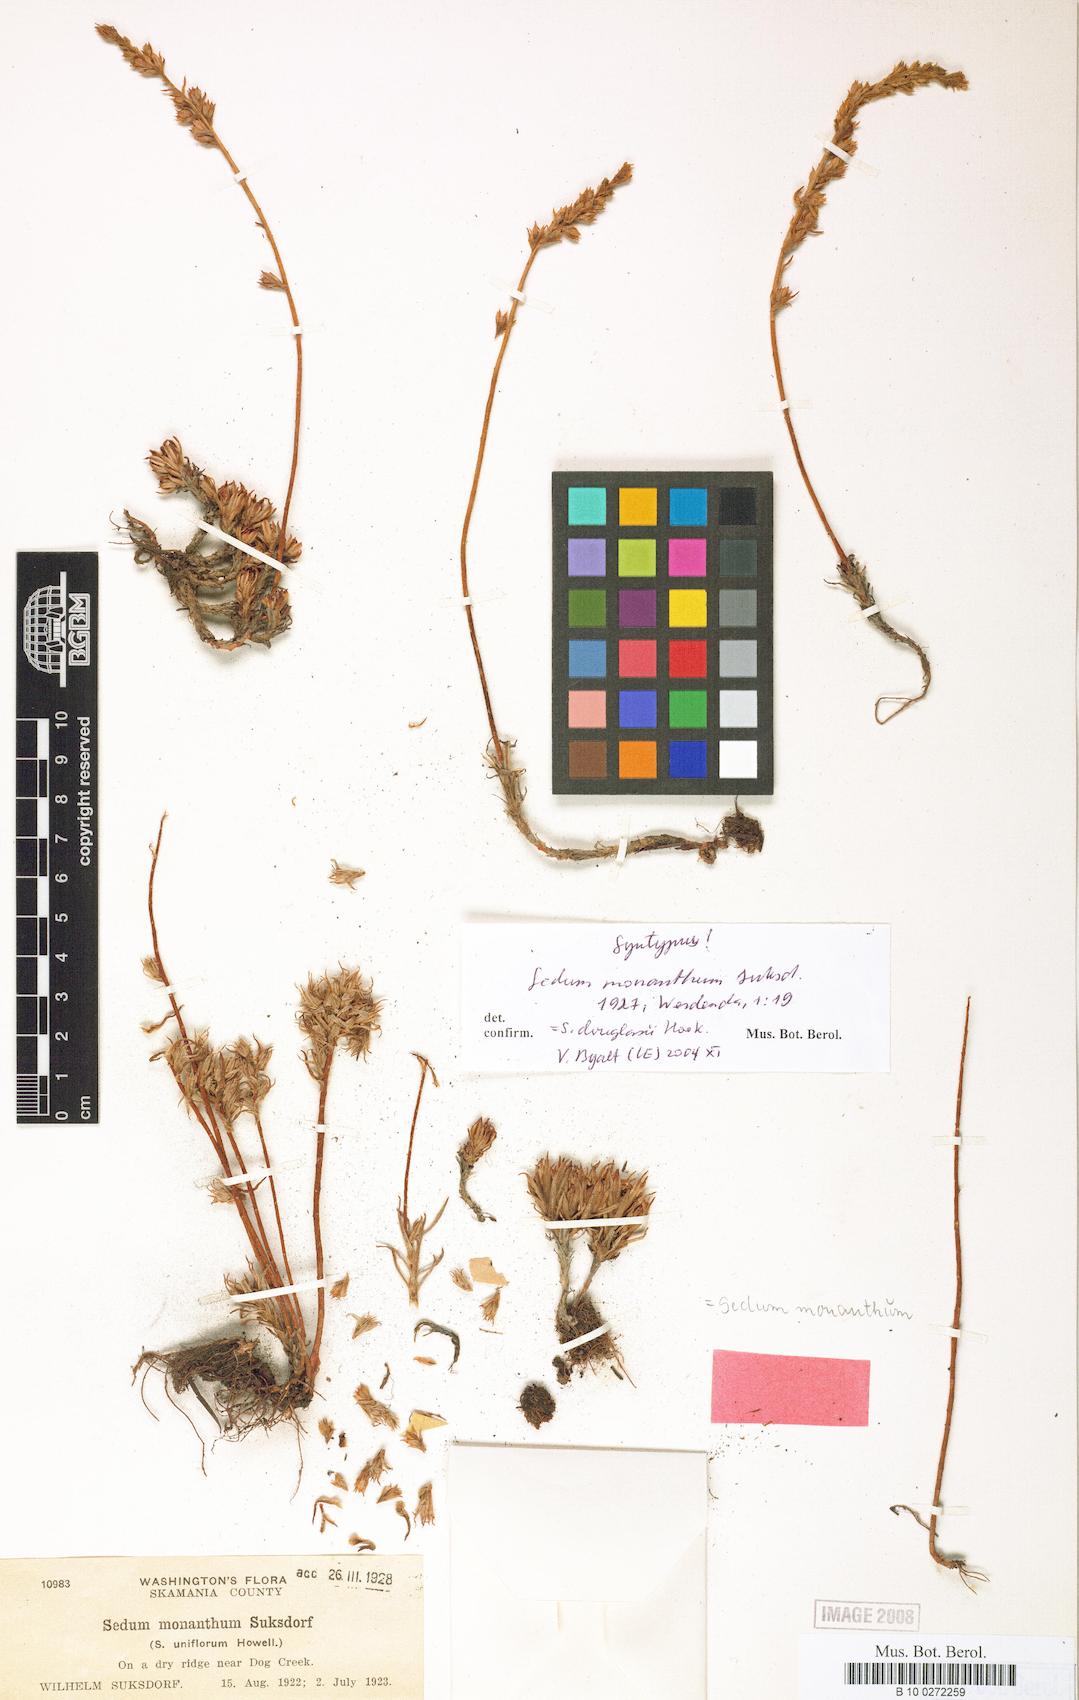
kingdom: Plantae
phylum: Tracheophyta
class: Magnoliopsida
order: Saxifragales
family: Crassulaceae
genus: Sedum
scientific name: Sedum stenopetalum
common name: Narrow-petaled stonecrop
